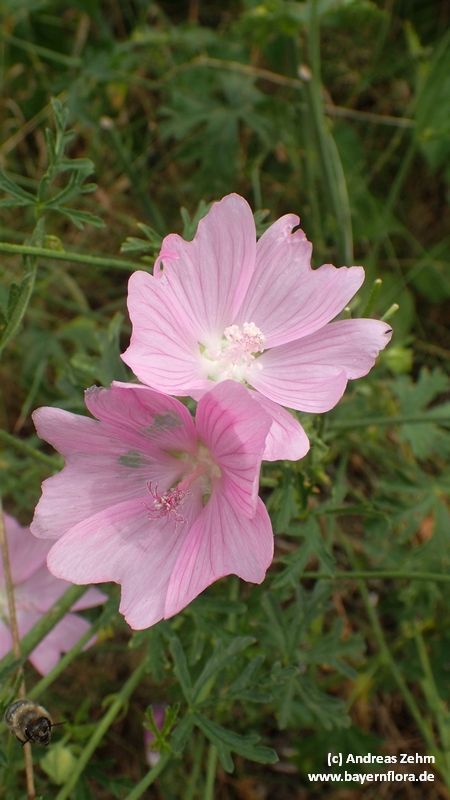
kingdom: Plantae
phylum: Tracheophyta
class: Magnoliopsida
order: Malvales
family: Malvaceae
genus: Malva
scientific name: Malva alcea
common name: Greater musk-mallow
